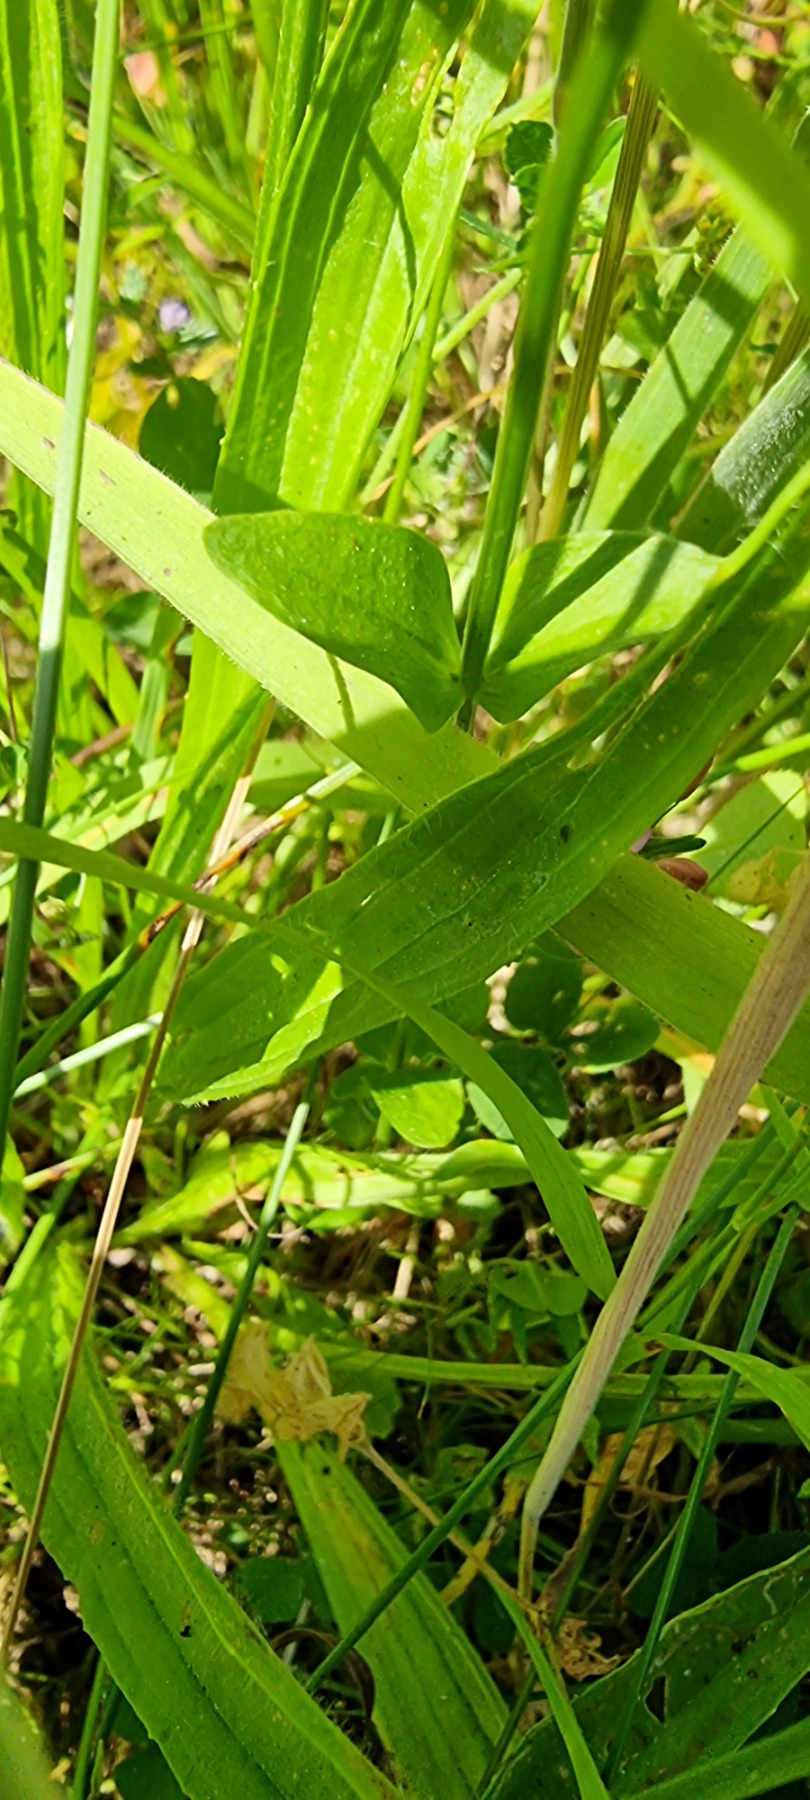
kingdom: Plantae
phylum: Tracheophyta
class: Magnoliopsida
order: Gentianales
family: Gentianaceae
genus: Centaurium
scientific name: Centaurium erythraea
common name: Mark-tusindgylden
